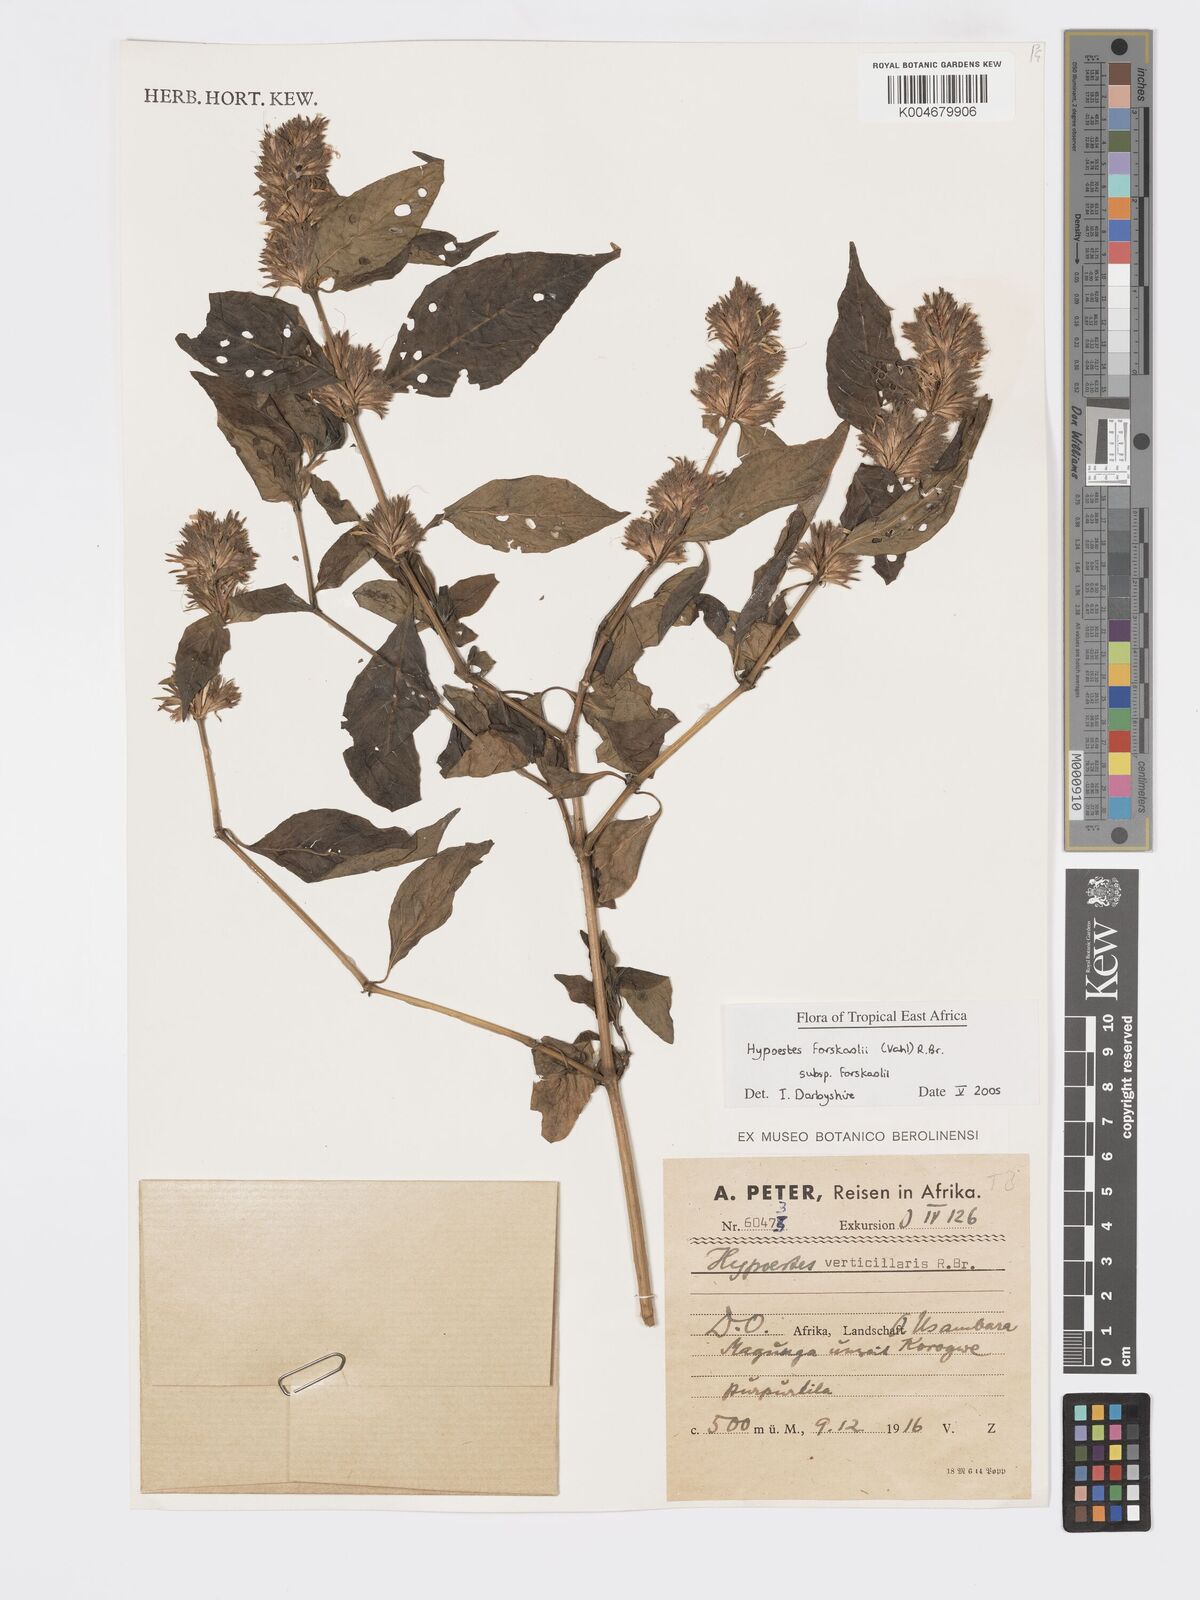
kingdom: Plantae
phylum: Tracheophyta
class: Magnoliopsida
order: Lamiales
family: Acanthaceae
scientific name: Acanthaceae
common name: Acanthaceae
